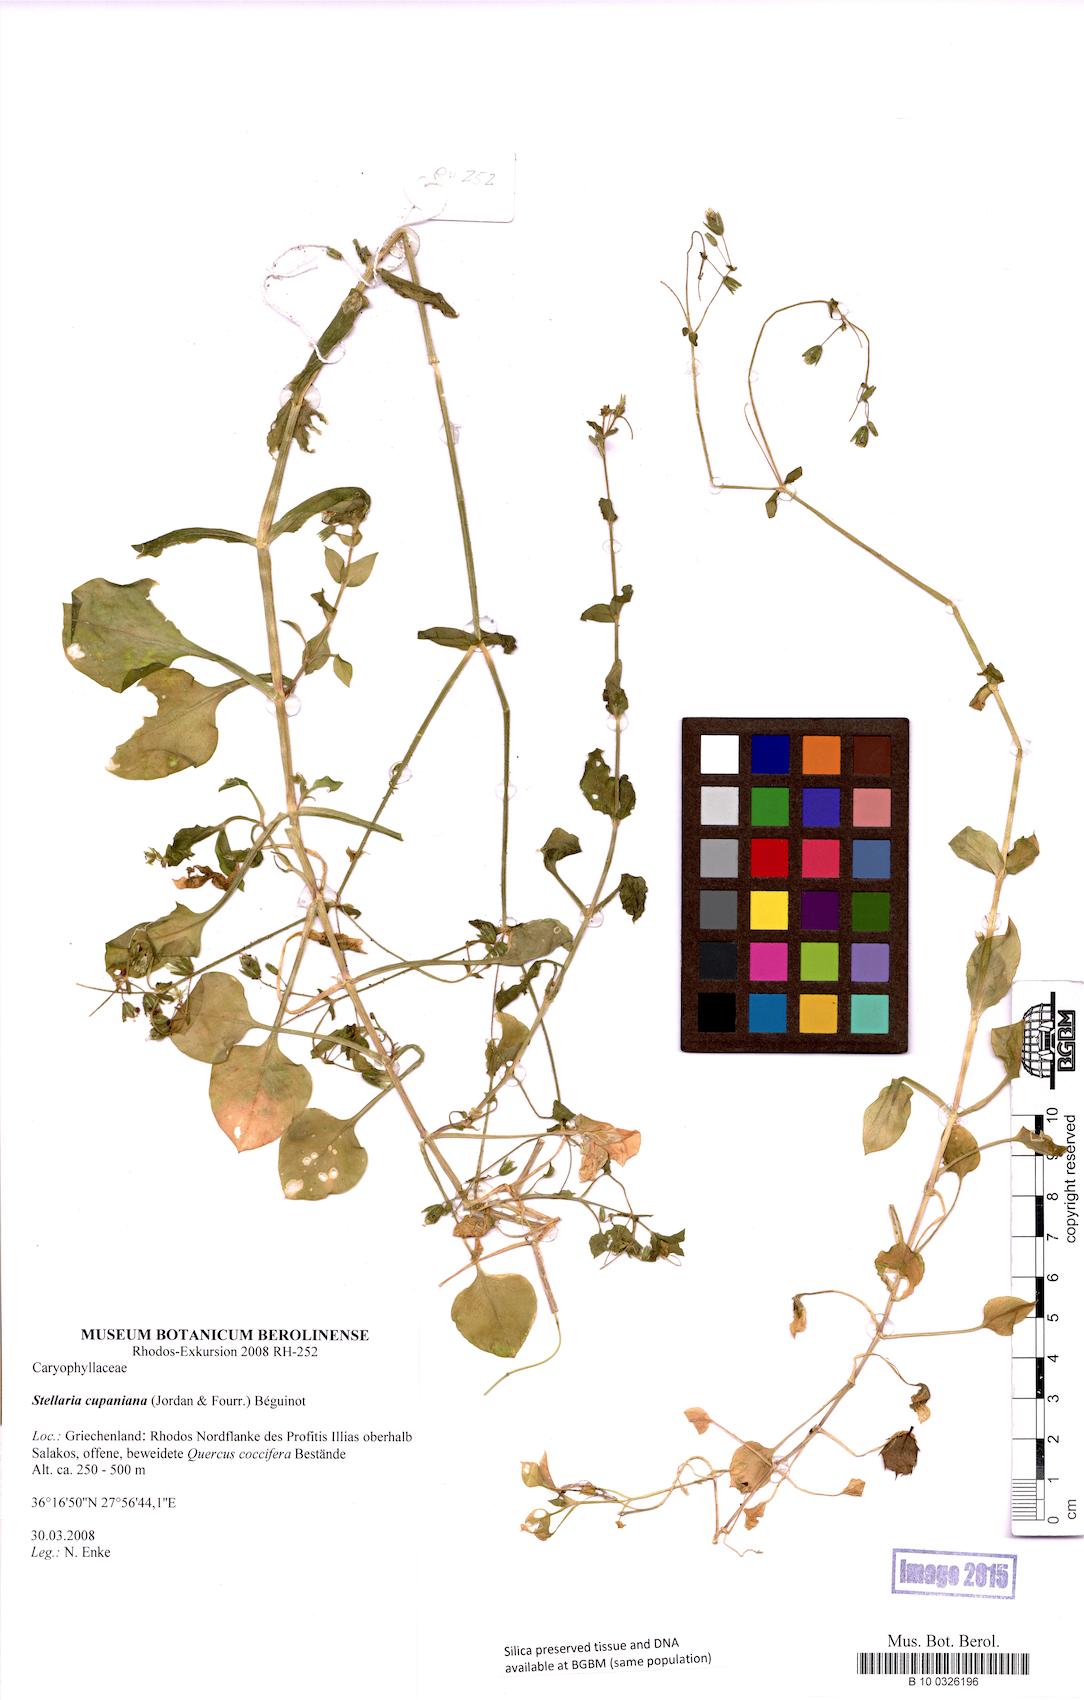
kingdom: Plantae
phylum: Tracheophyta
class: Magnoliopsida
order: Caryophyllales
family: Caryophyllaceae
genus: Stellaria
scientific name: Stellaria cupaniana
